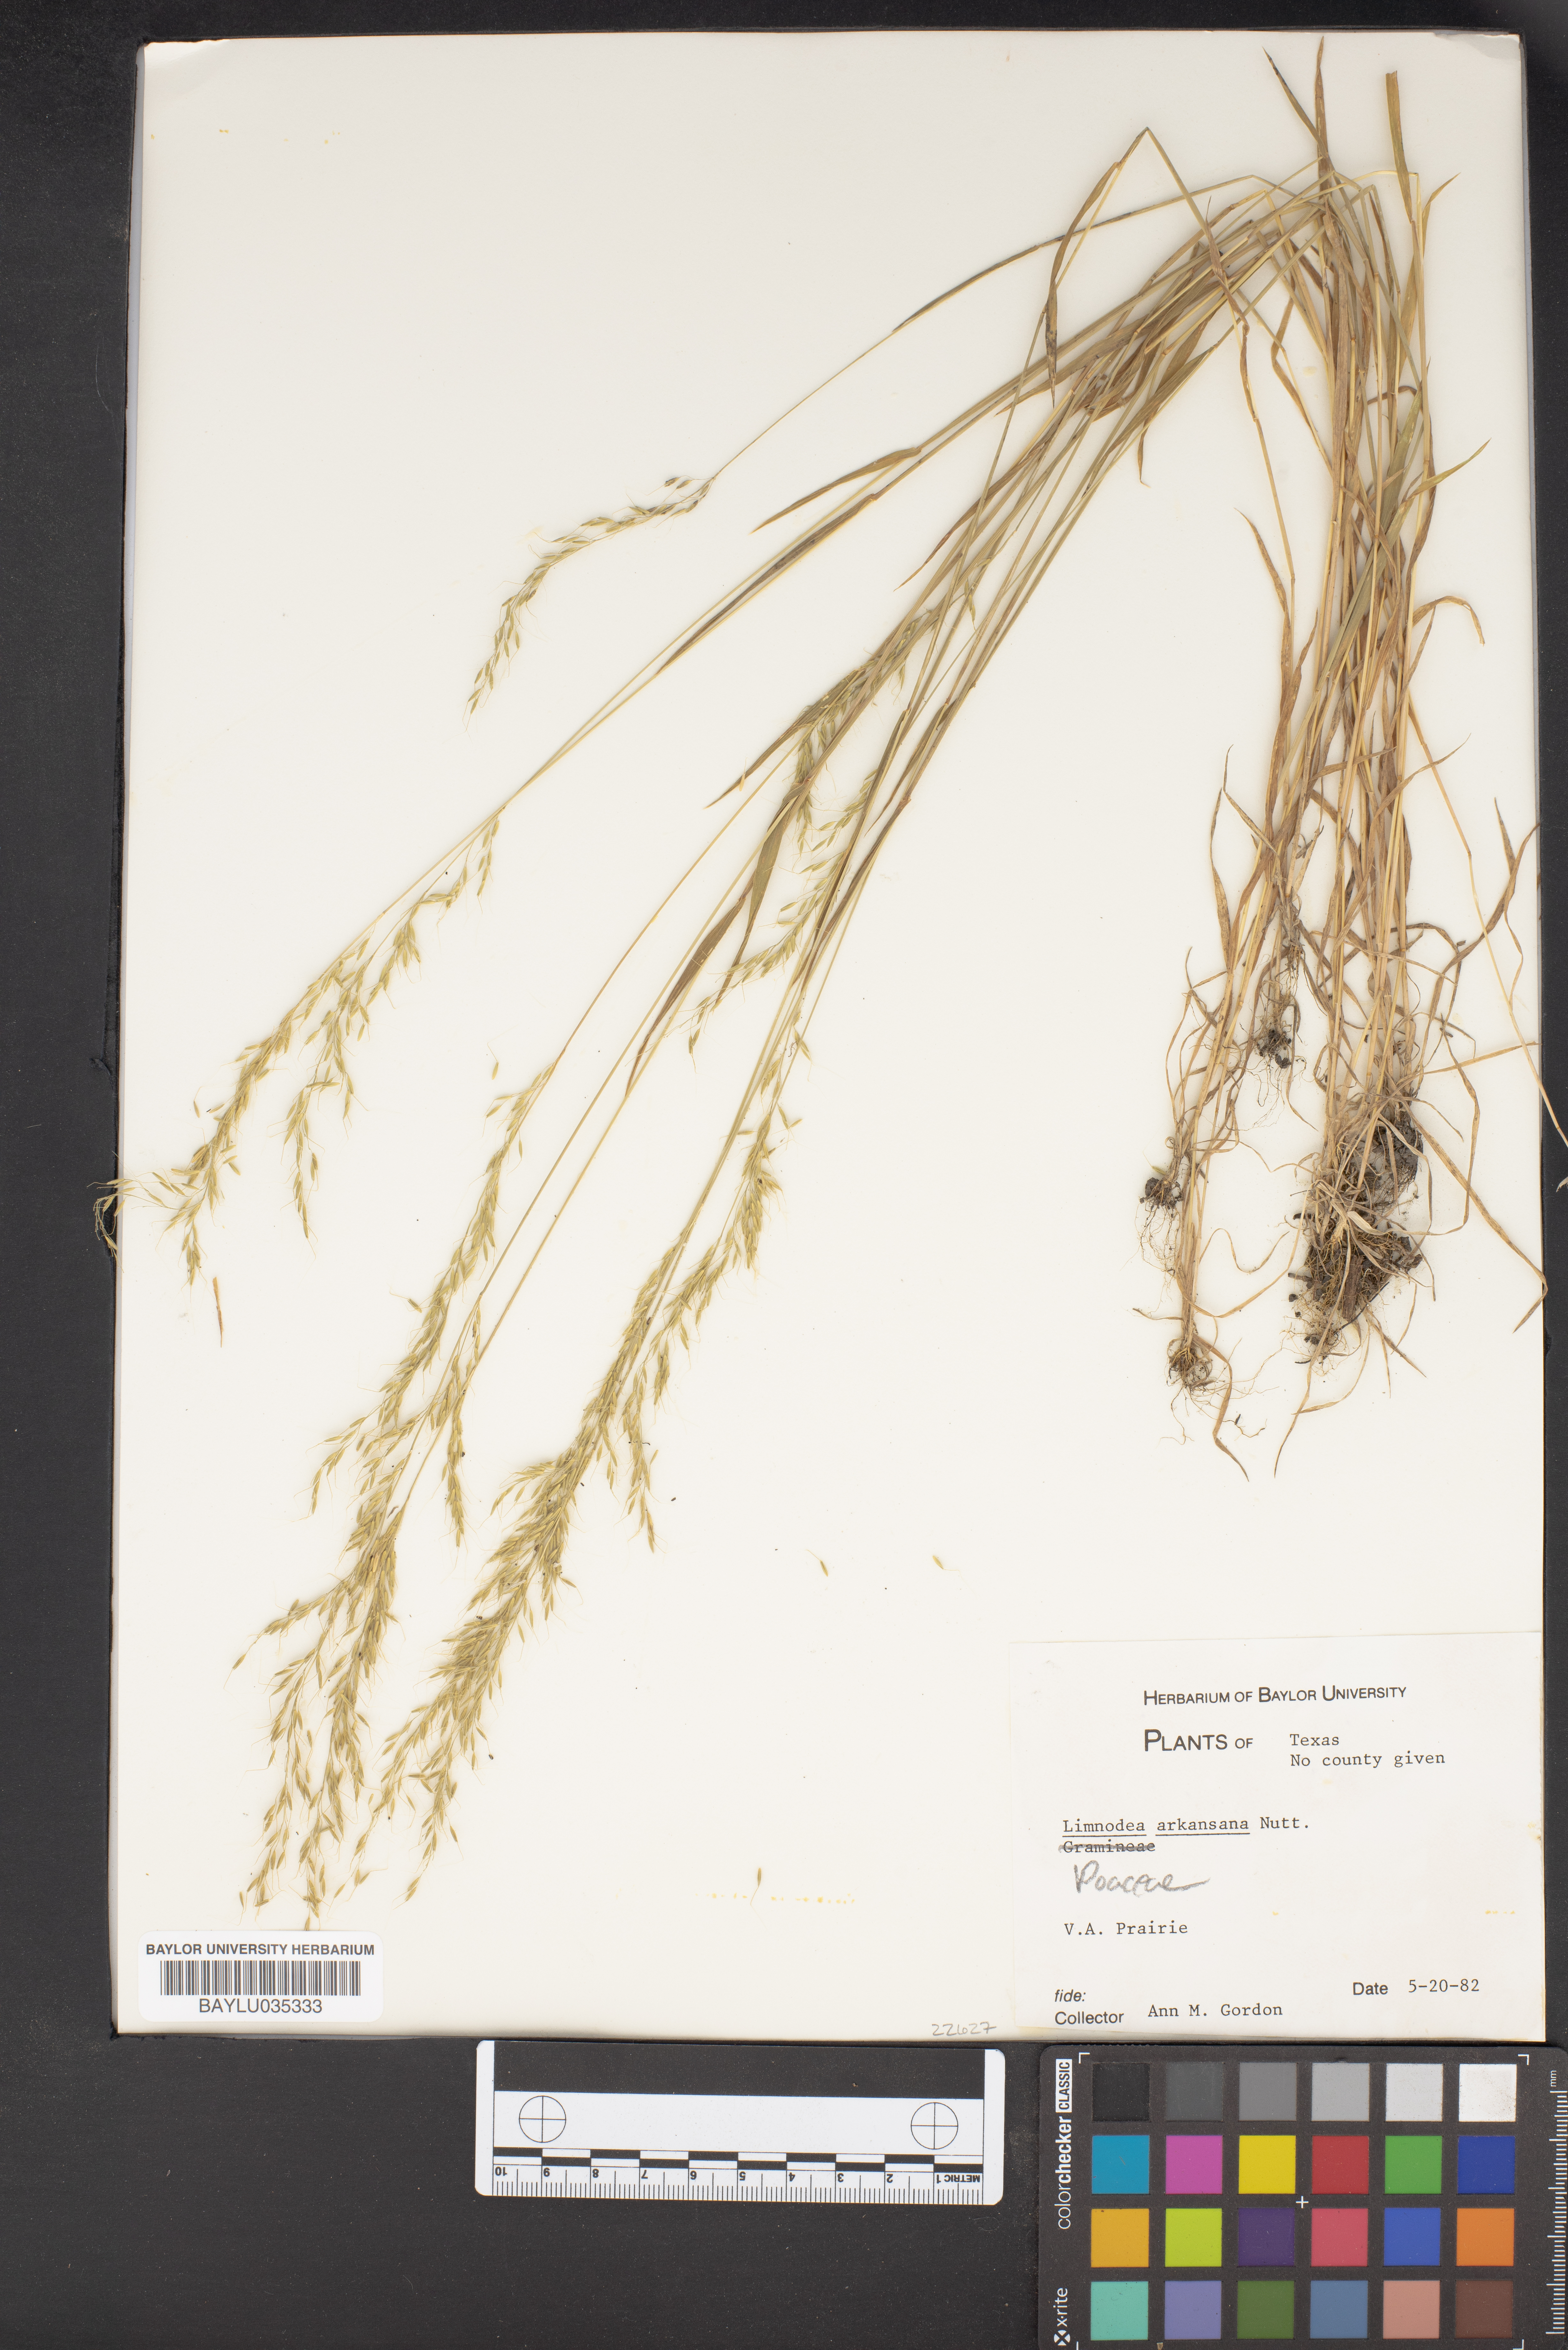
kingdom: Plantae
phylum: Tracheophyta
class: Liliopsida
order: Poales
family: Poaceae
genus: Limnodea
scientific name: Limnodea arkansana
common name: Ozark-grass
